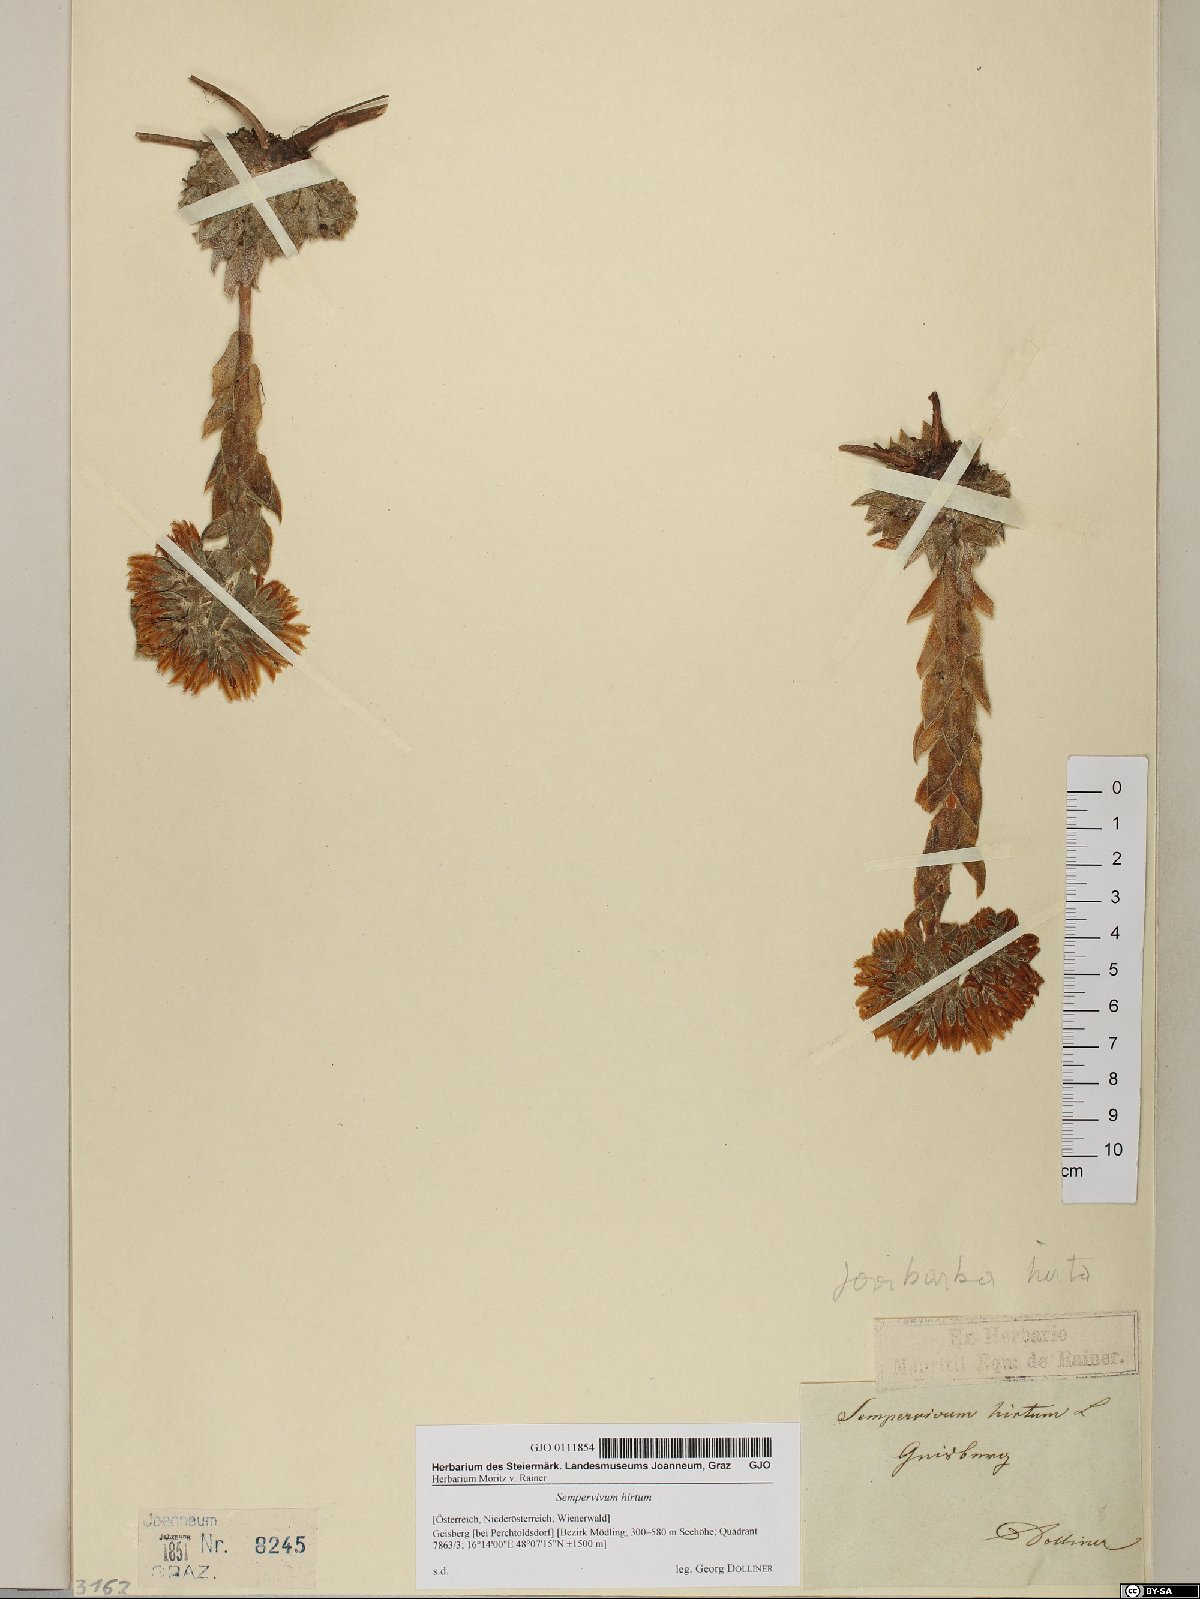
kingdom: Plantae
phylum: Tracheophyta
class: Magnoliopsida
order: Saxifragales
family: Crassulaceae
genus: Sempervivum
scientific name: Sempervivum globiferum
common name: Rolling hen-and-chicks
